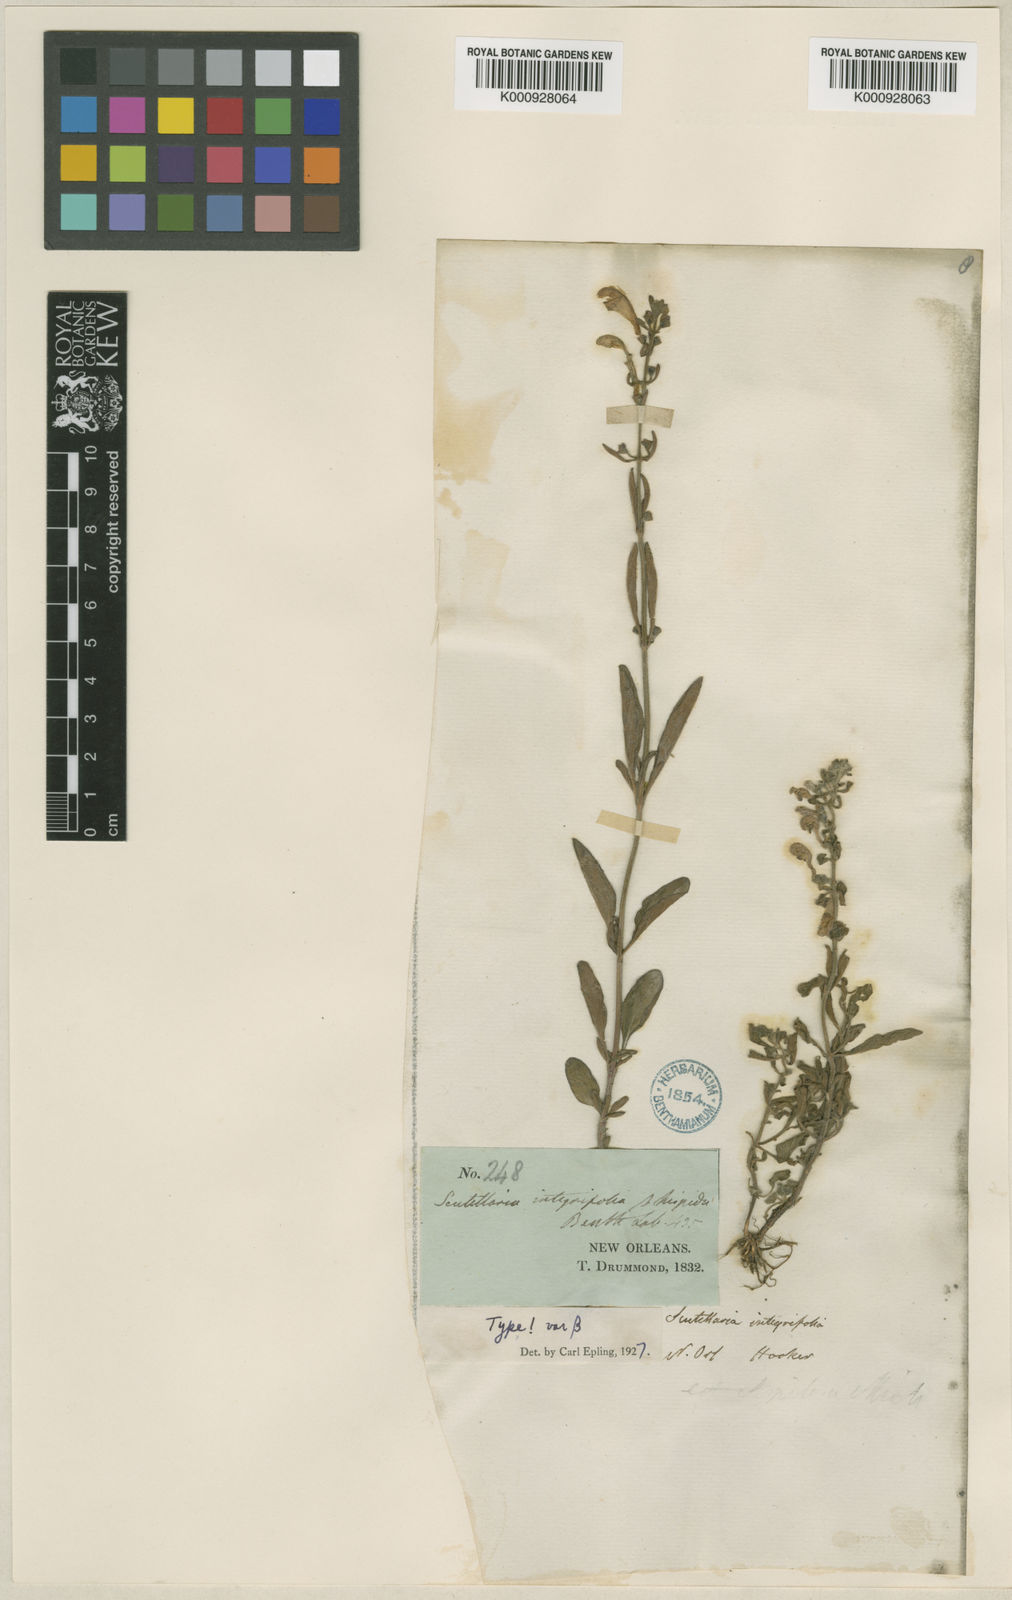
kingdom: Plantae
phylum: Tracheophyta
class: Magnoliopsida
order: Lamiales
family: Lamiaceae
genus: Scutellaria
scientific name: Scutellaria integrifolia
